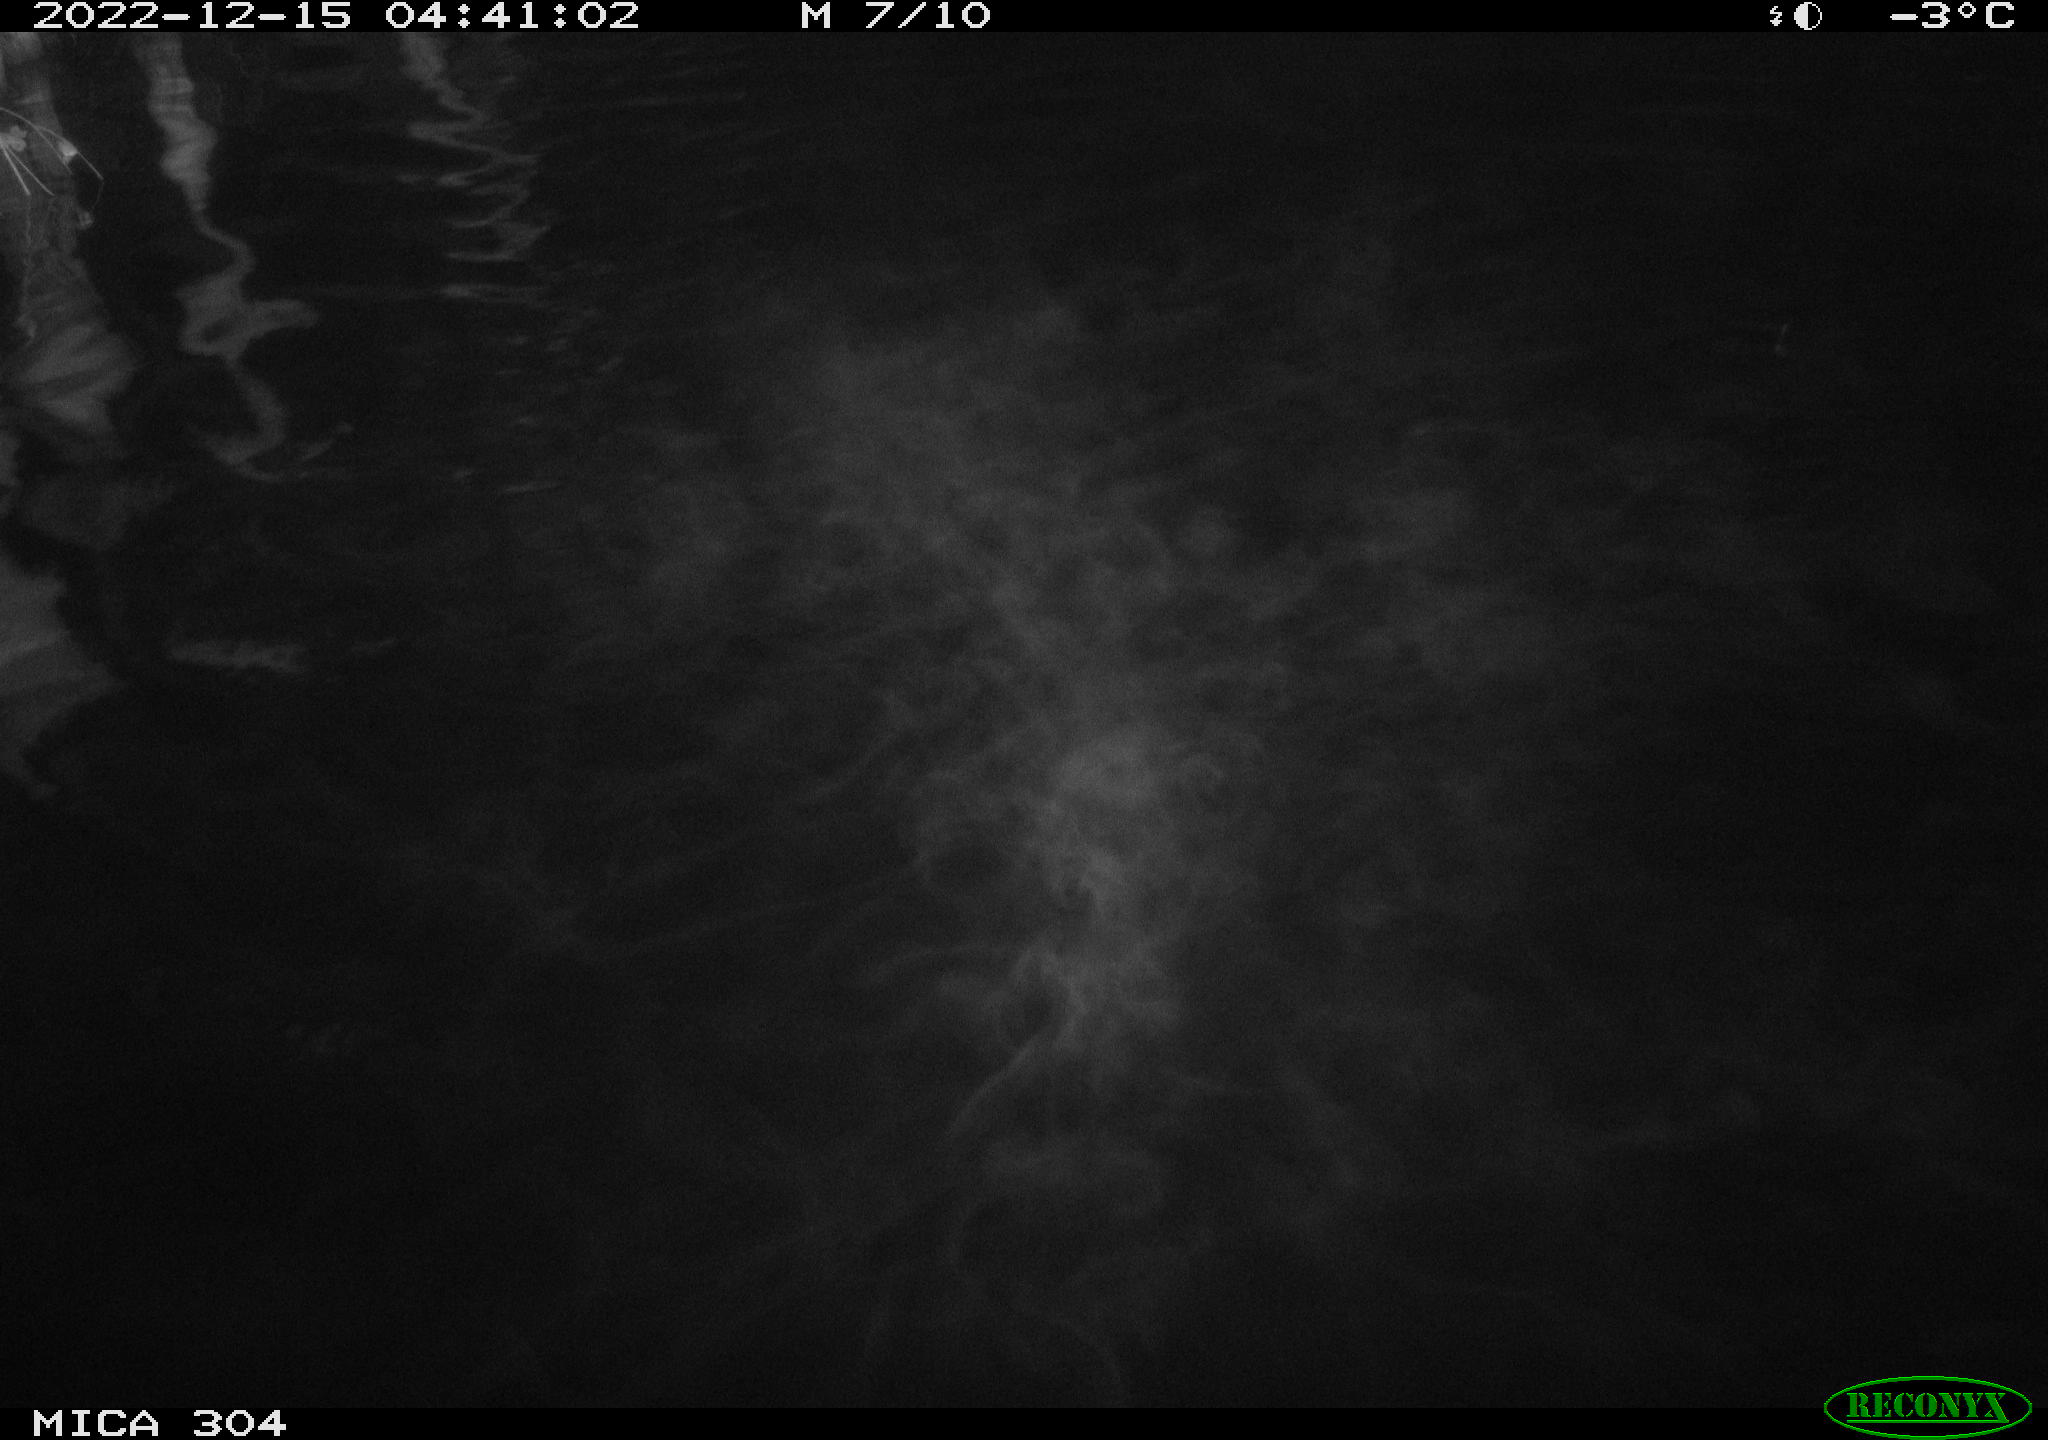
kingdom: Animalia
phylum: Chordata
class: Mammalia
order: Rodentia
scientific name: Rodentia
